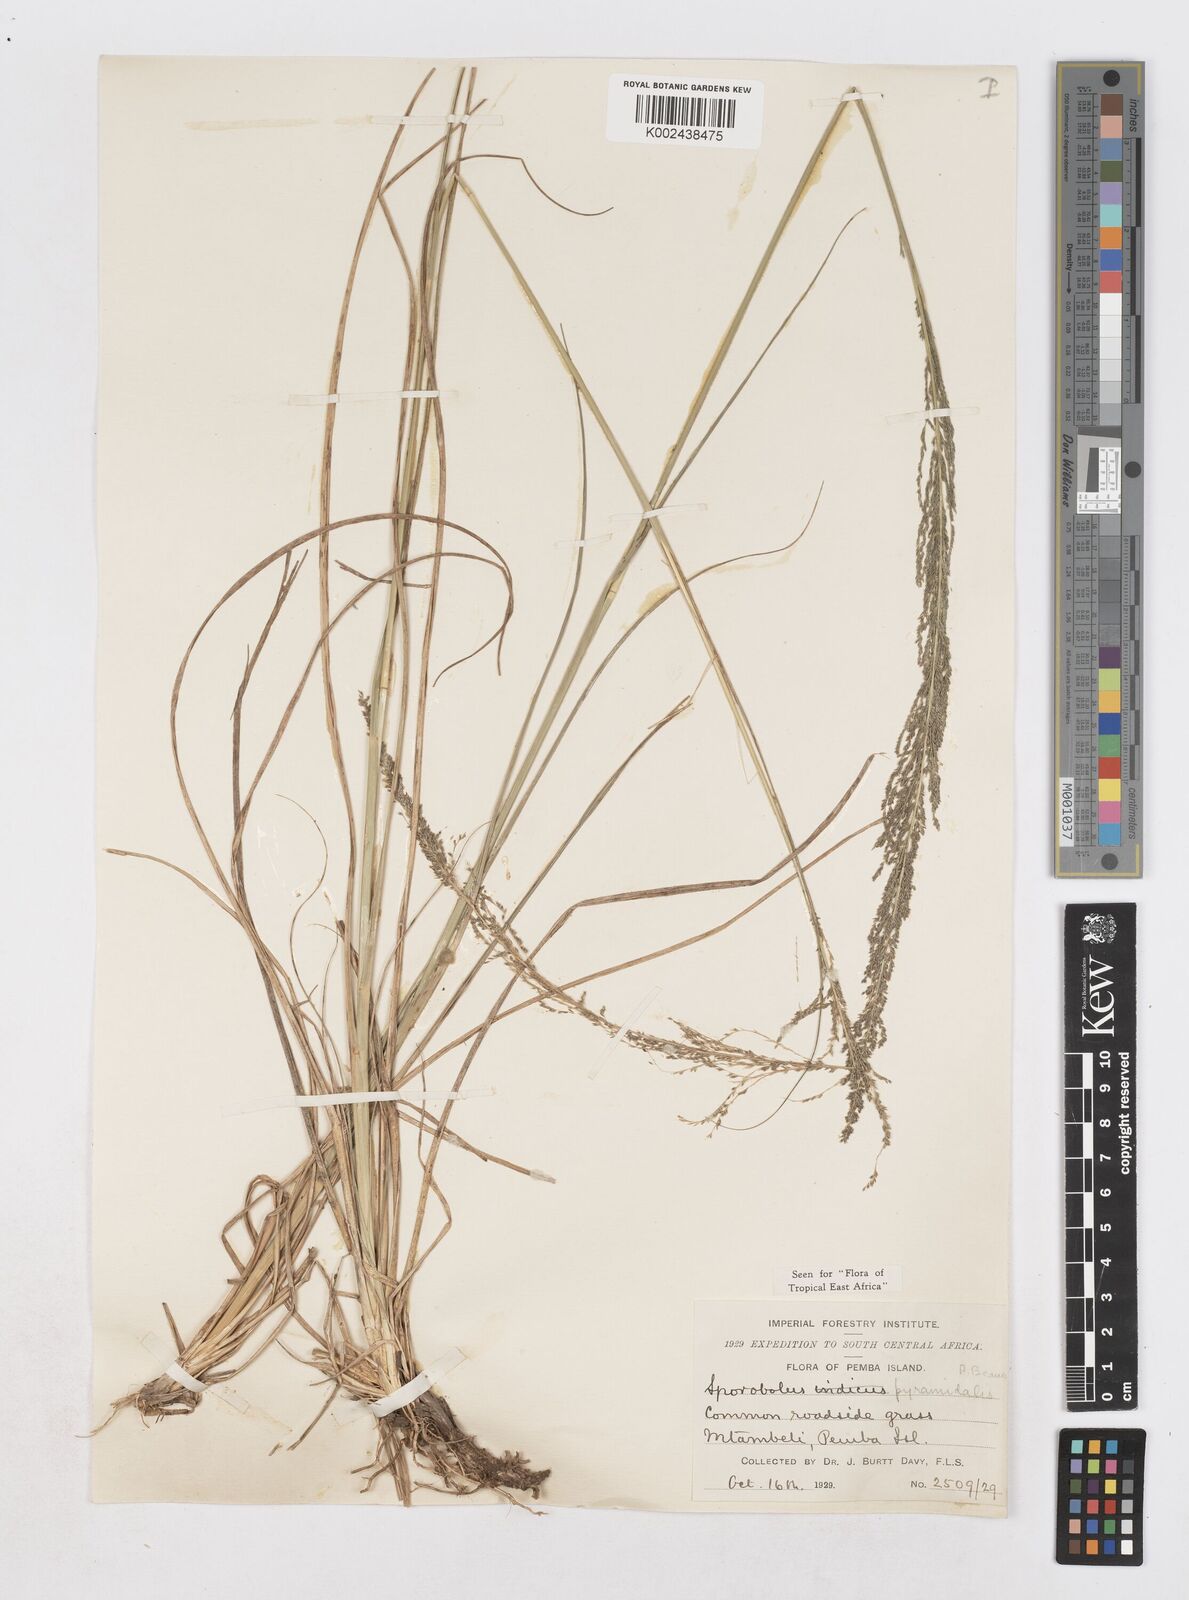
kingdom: Plantae
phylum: Tracheophyta
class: Liliopsida
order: Poales
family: Poaceae
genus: Sporobolus
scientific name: Sporobolus pyramidalis
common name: West indian dropseed
